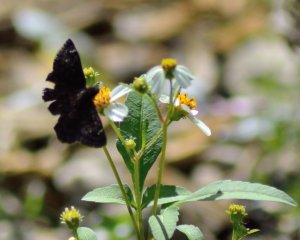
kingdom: Animalia
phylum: Arthropoda
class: Insecta
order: Lepidoptera
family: Hesperiidae
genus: Gesta
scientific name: Gesta
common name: Horace's Duskywing
